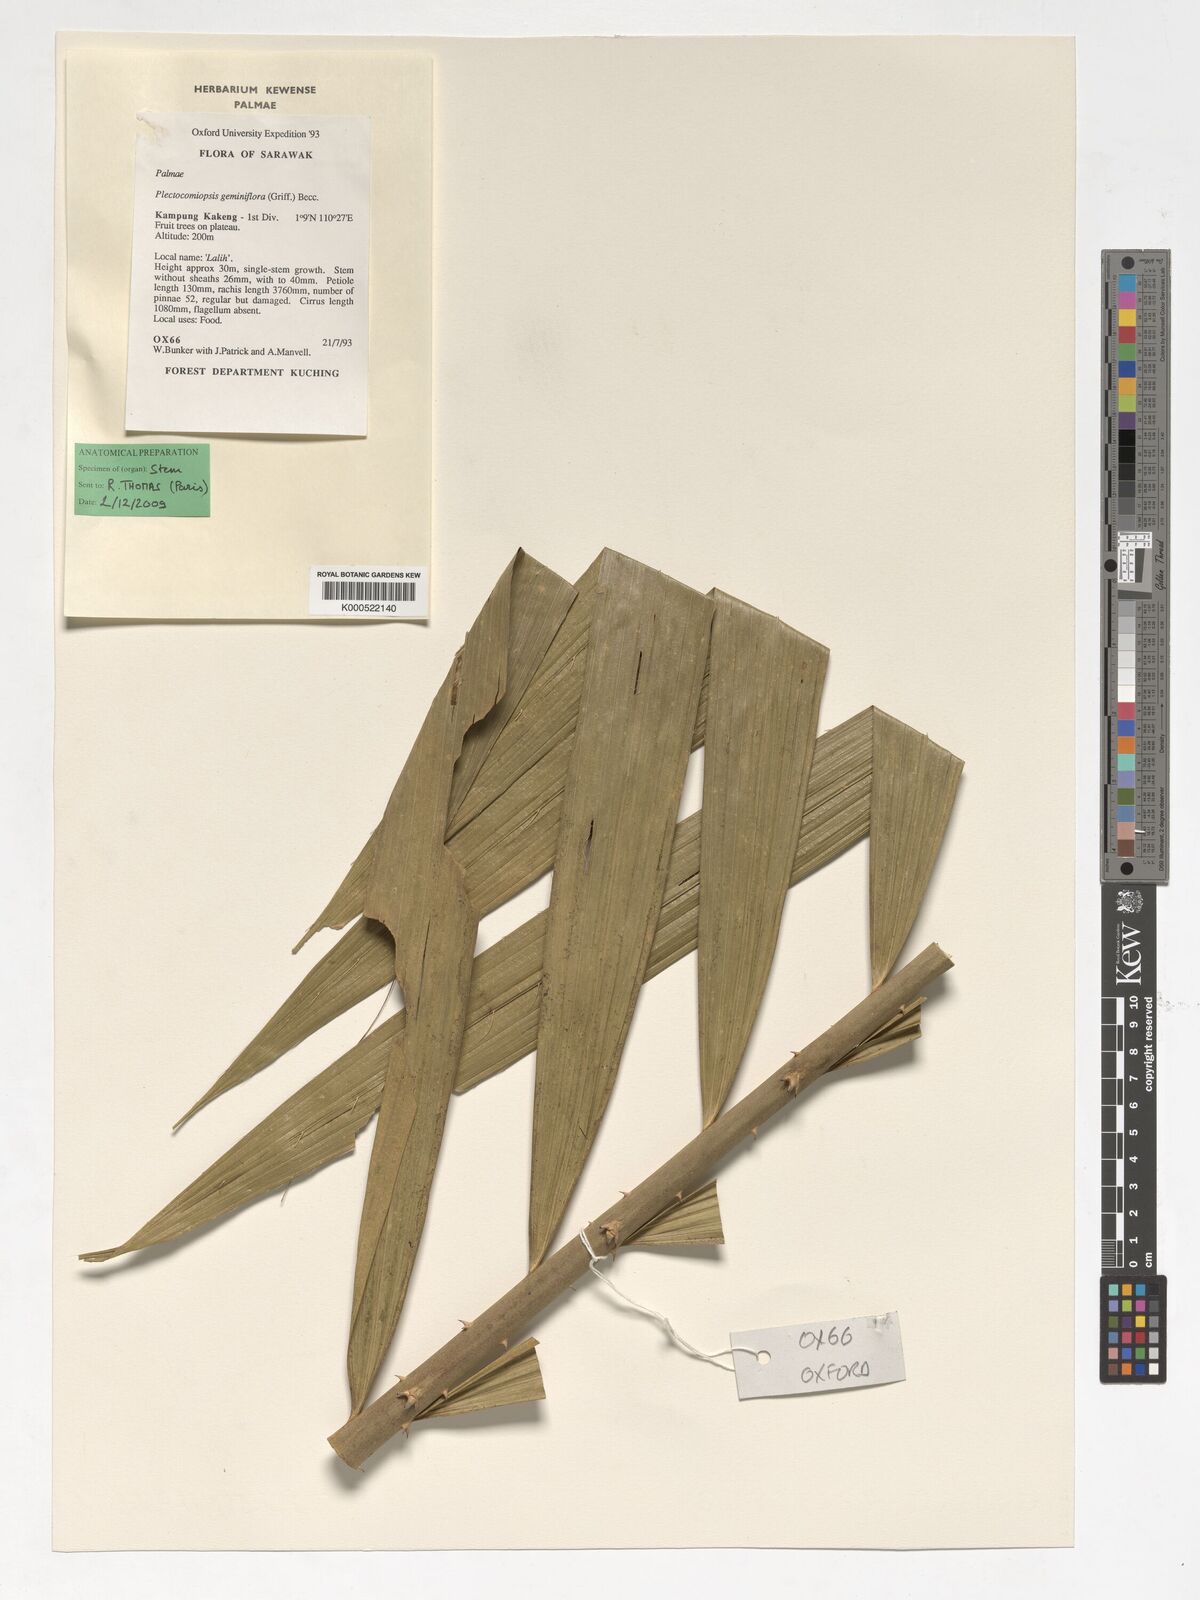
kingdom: Plantae
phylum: Tracheophyta
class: Liliopsida
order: Arecales
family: Arecaceae
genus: Plectocomiopsis
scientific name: Plectocomiopsis geminiflora
